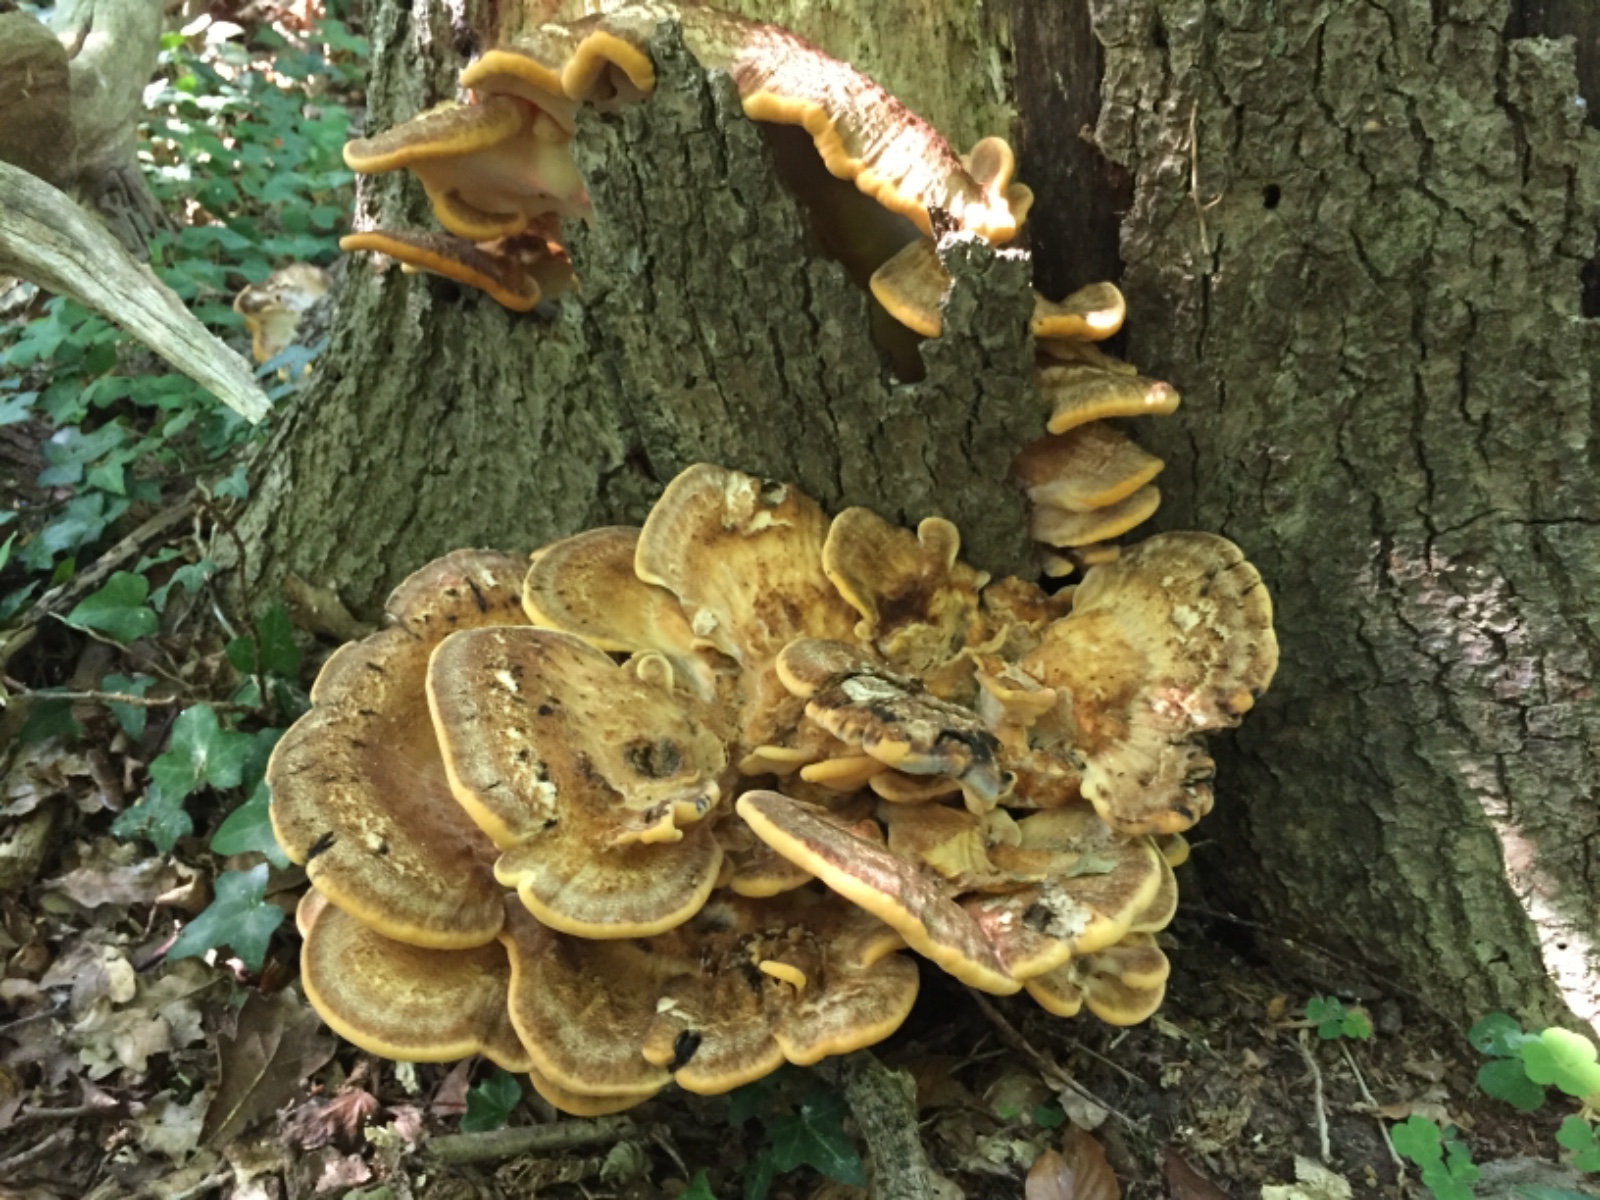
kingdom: Fungi
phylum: Basidiomycota
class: Agaricomycetes
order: Polyporales
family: Meripilaceae
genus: Meripilus
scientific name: Meripilus giganteus
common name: kæmpeporesvamp
